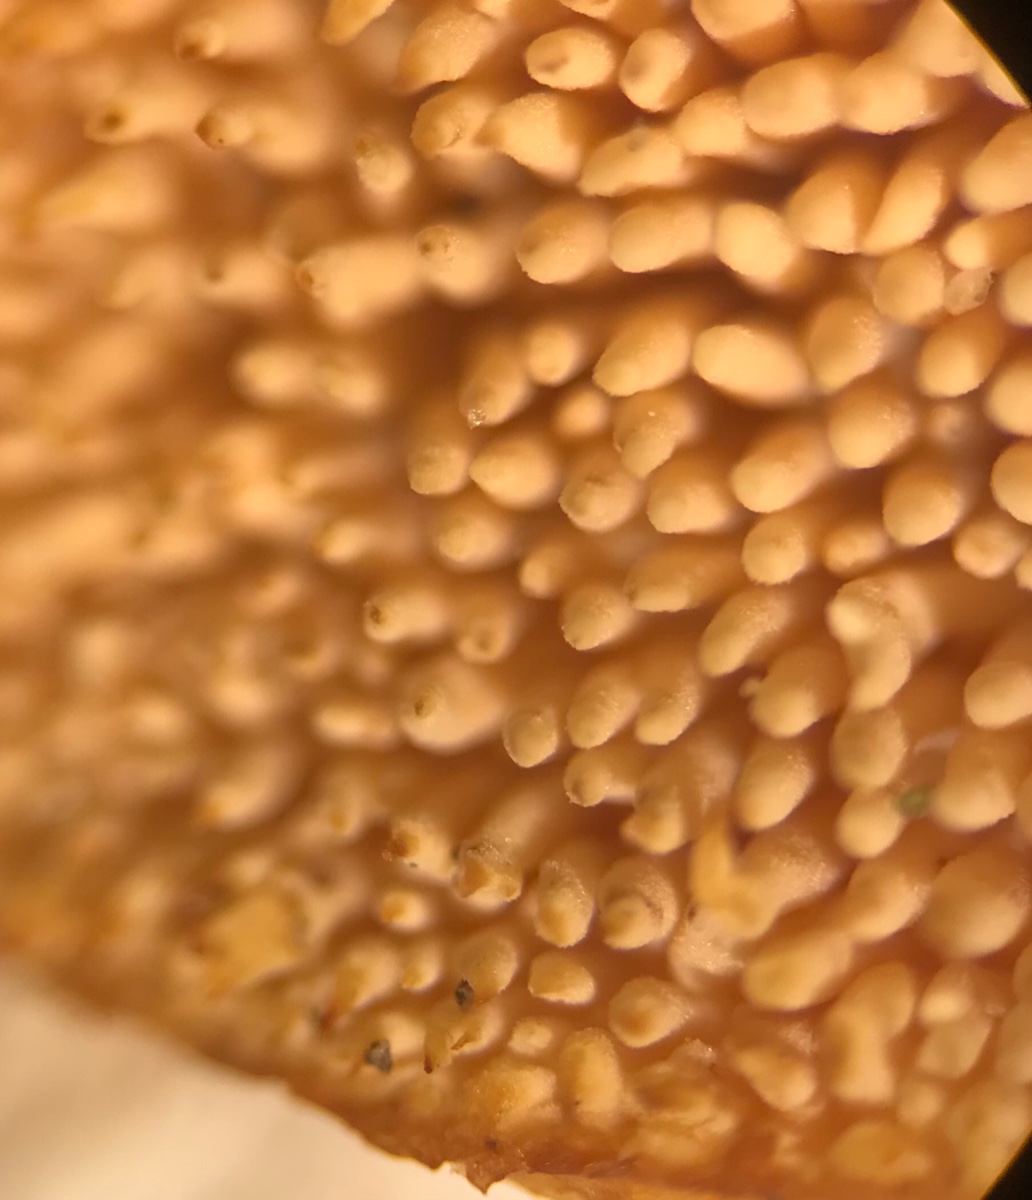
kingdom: Fungi
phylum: Basidiomycota
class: Agaricomycetes
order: Cantharellales
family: Hydnaceae
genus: Hydnum
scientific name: Hydnum ellipsosporum
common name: tandet pigsvamp
